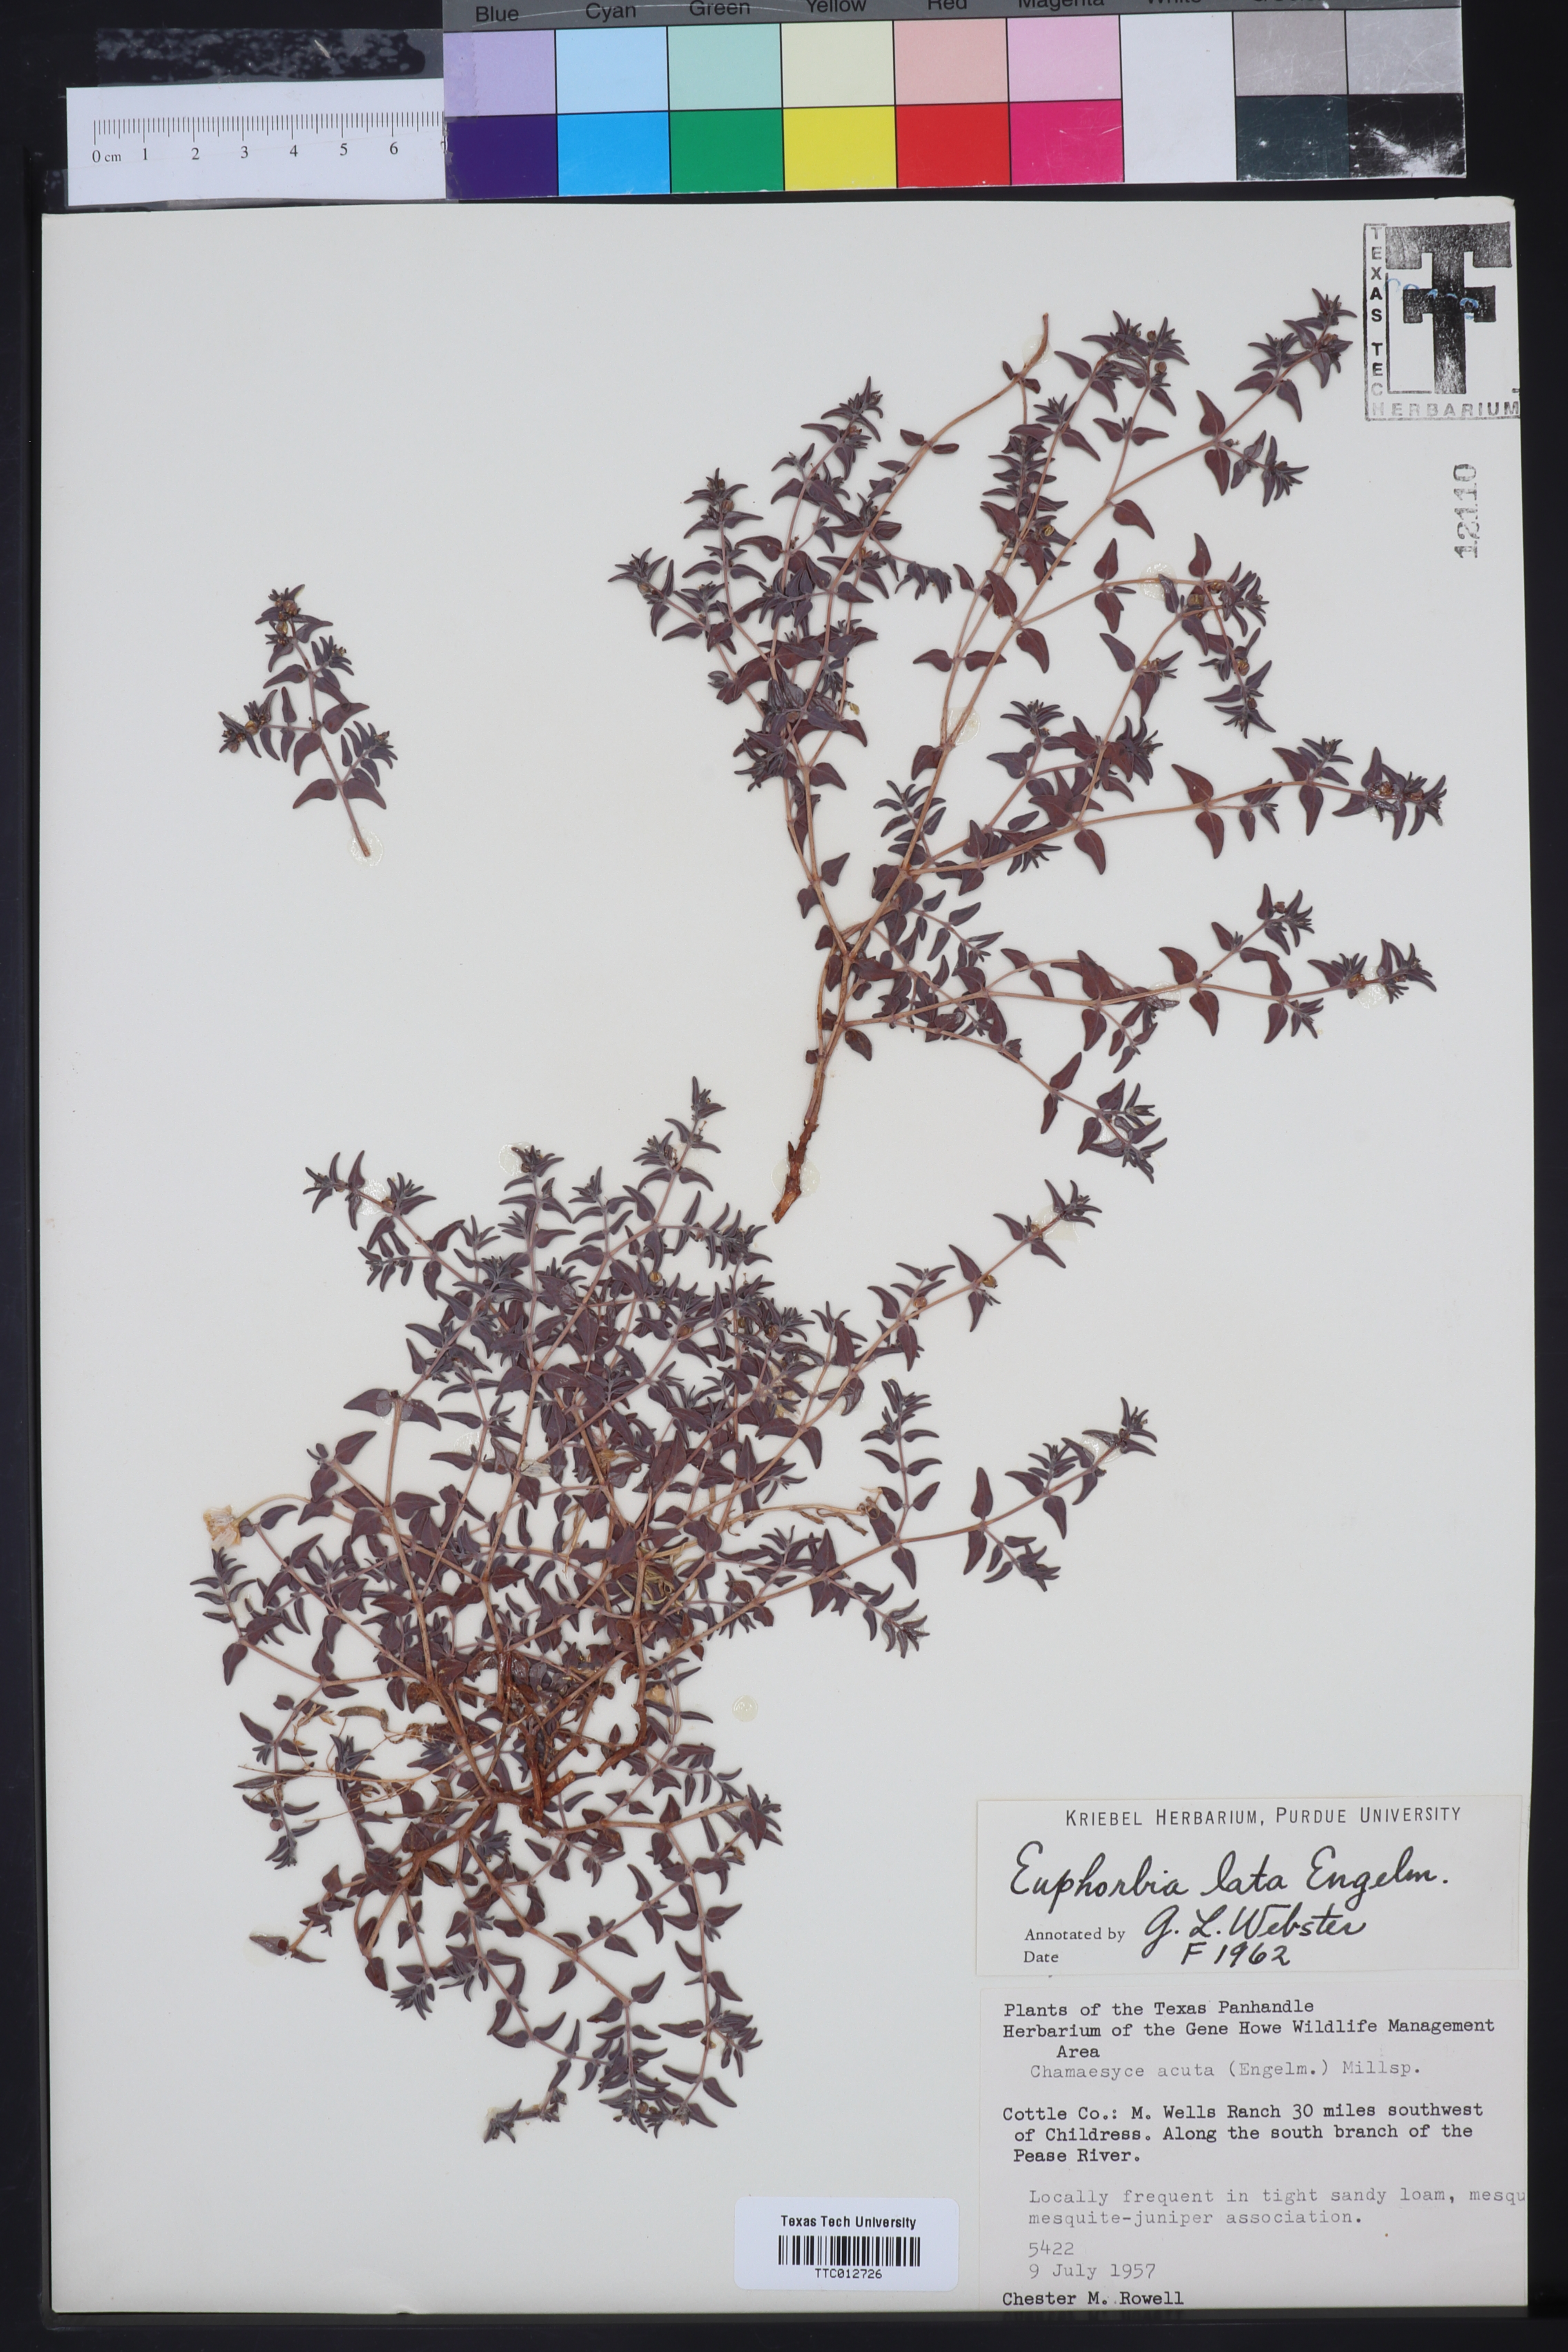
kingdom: Plantae
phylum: Tracheophyta
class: Magnoliopsida
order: Malpighiales
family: Euphorbiaceae
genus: Euphorbia
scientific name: Euphorbia lata
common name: Hoary euphorbia
